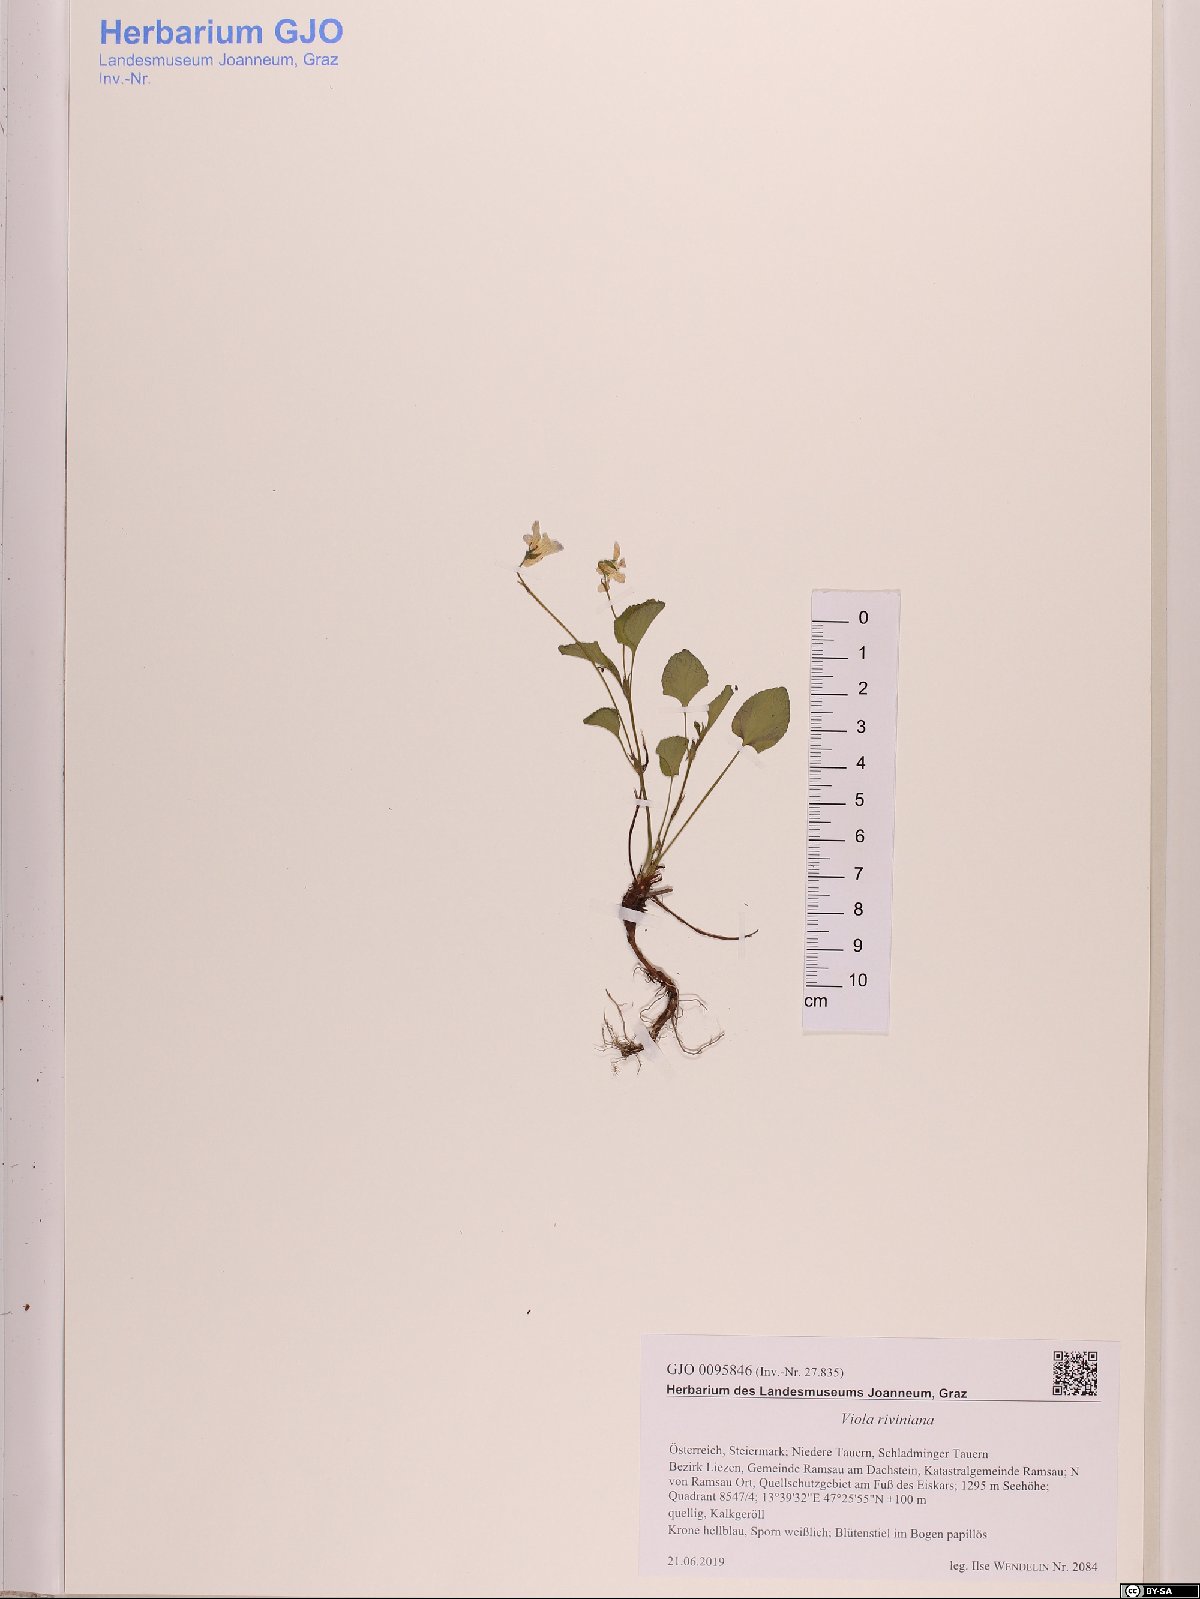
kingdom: Plantae
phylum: Tracheophyta
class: Magnoliopsida
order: Malpighiales
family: Violaceae
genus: Viola
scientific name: Viola riviniana
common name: Common dog-violet
